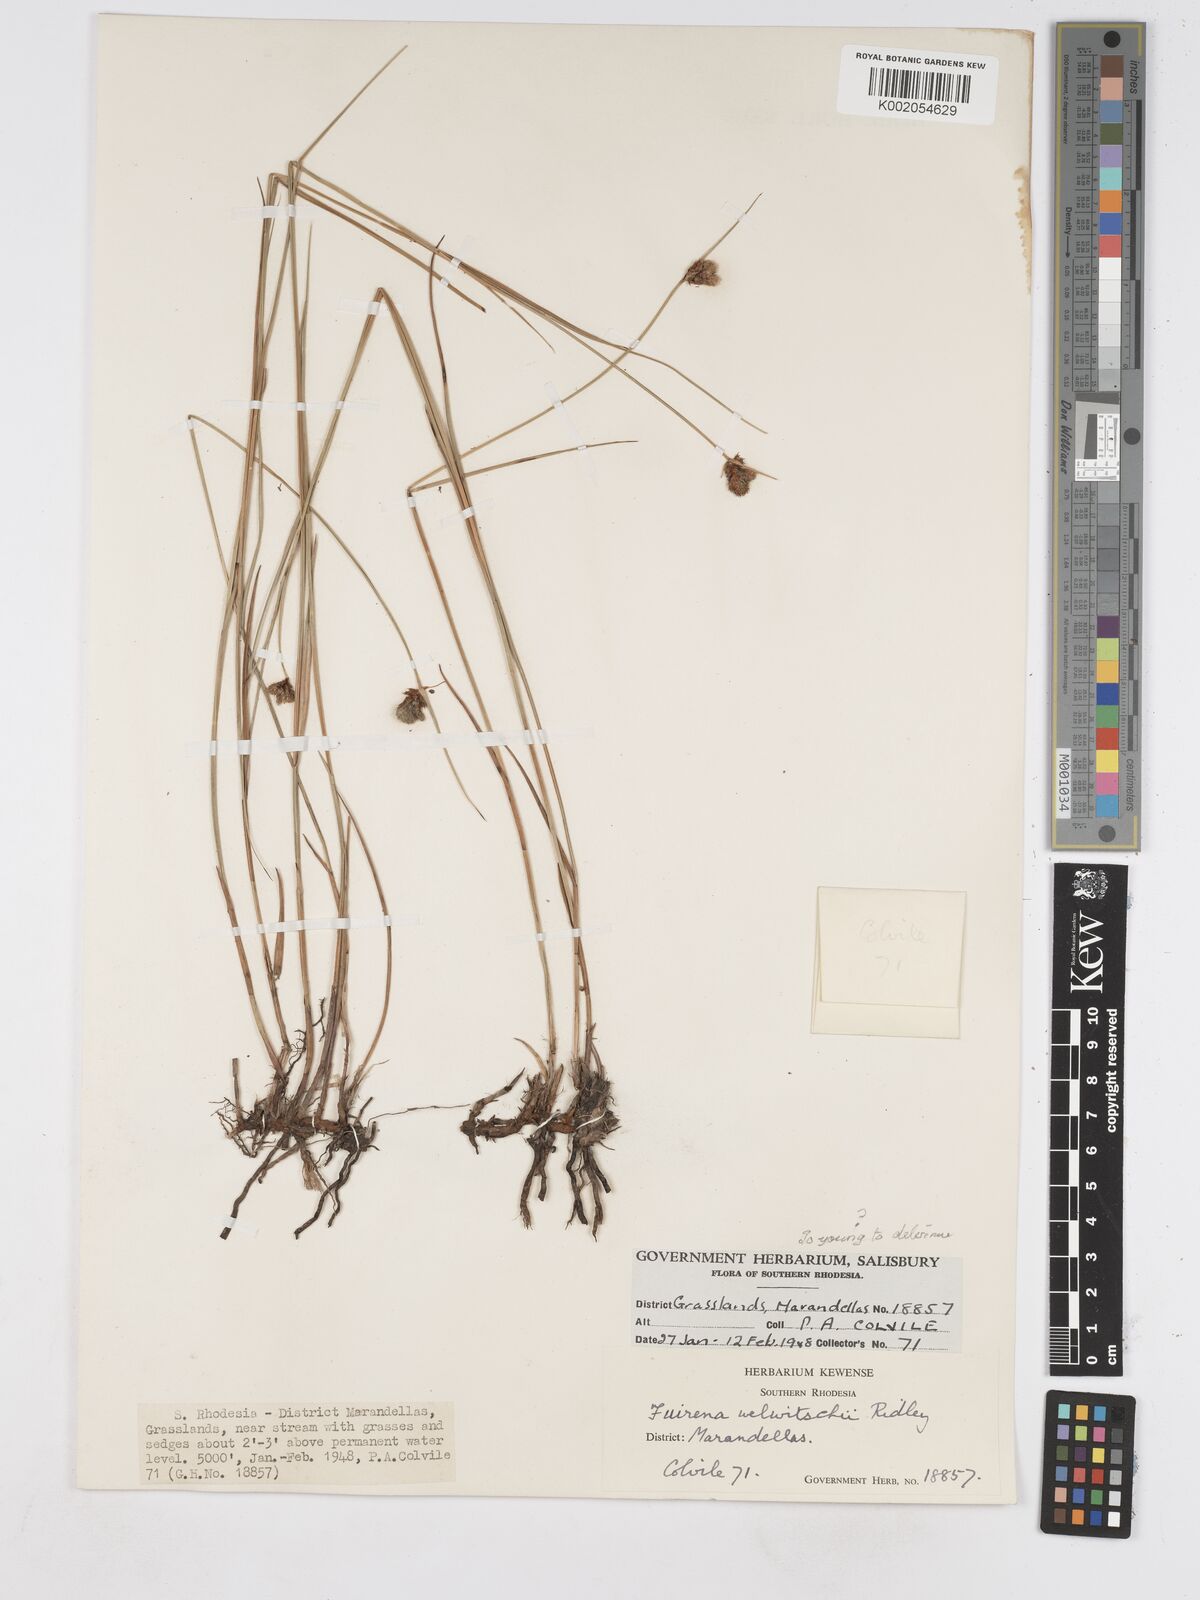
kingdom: Plantae
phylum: Tracheophyta
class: Liliopsida
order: Poales
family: Cyperaceae
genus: Fuirena
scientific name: Fuirena welwitschii
